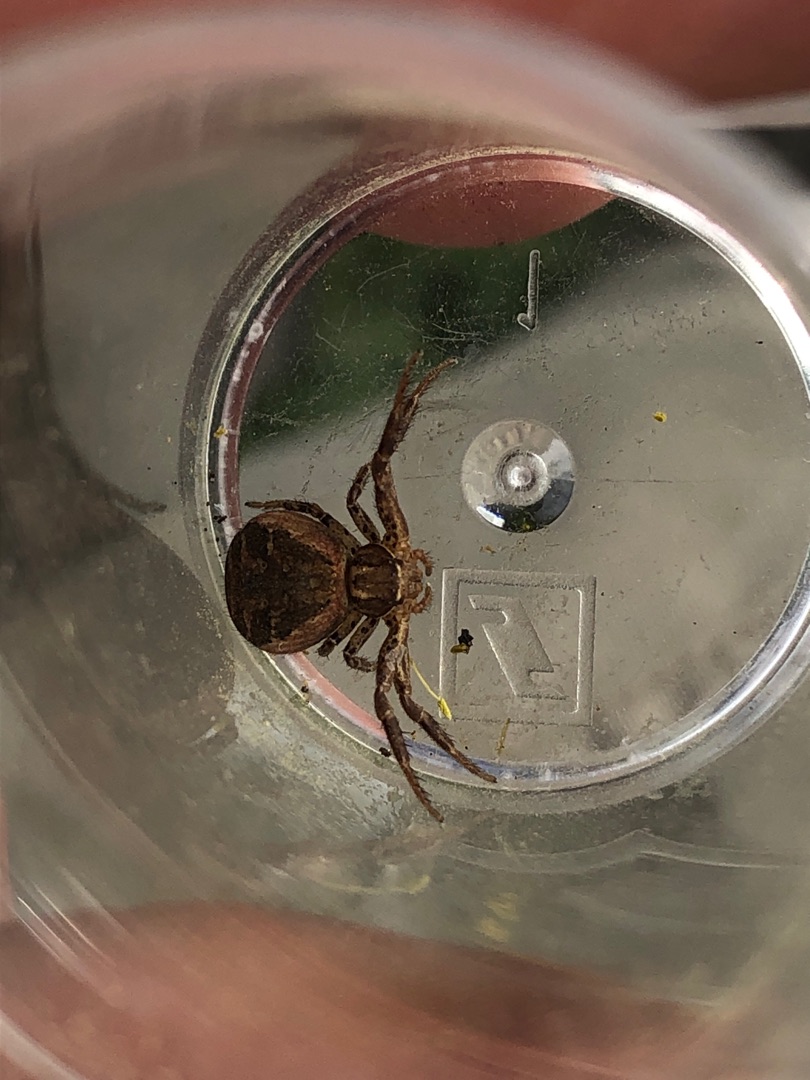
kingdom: Animalia
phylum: Arthropoda
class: Arachnida
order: Araneae
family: Thomisidae
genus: Xysticus
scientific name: Xysticus kochi
